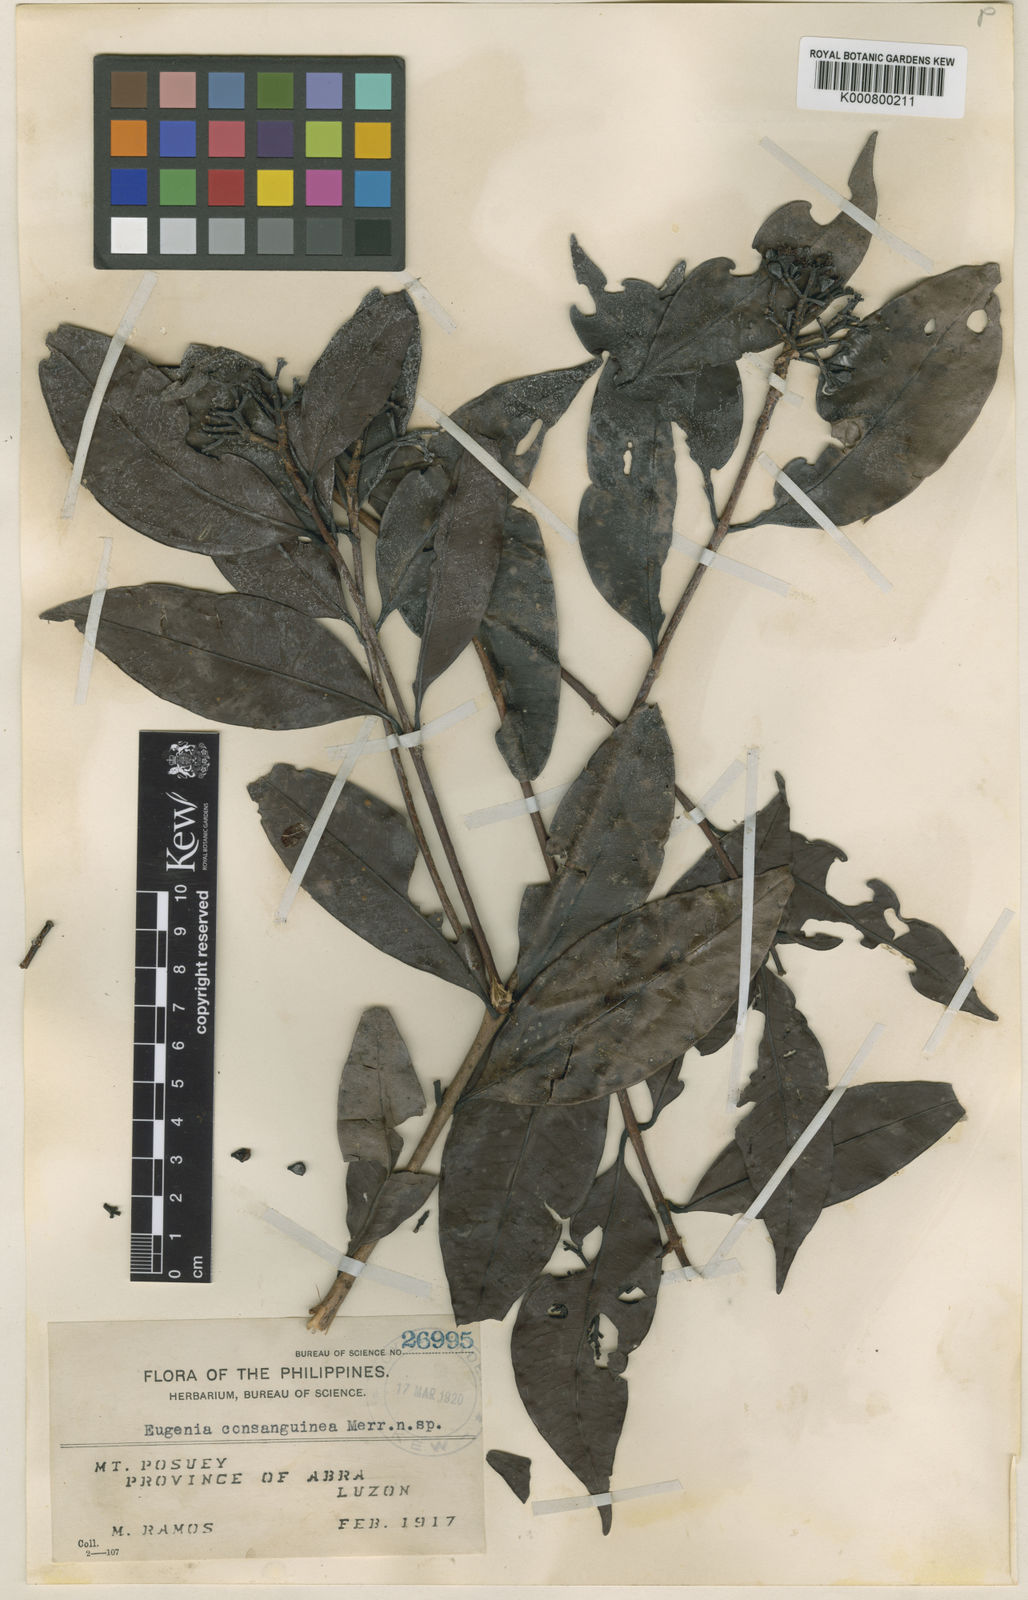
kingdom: Plantae
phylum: Tracheophyta
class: Magnoliopsida
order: Myrtales
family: Myrtaceae
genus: Syzygium
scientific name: Syzygium consanguineum
